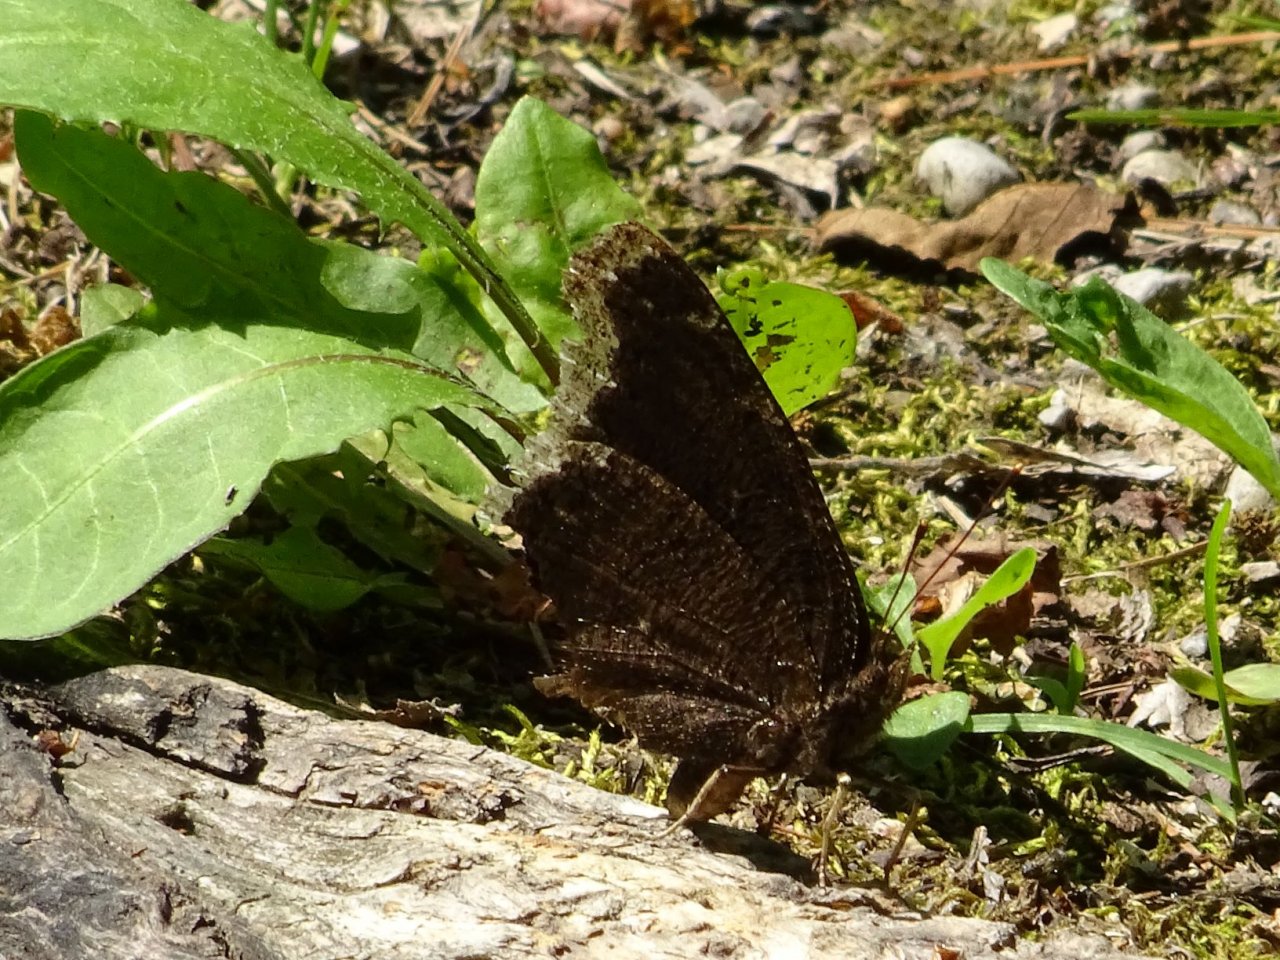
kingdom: Animalia
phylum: Arthropoda
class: Insecta
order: Lepidoptera
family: Nymphalidae
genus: Nymphalis
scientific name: Nymphalis antiopa
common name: Mourning Cloak
